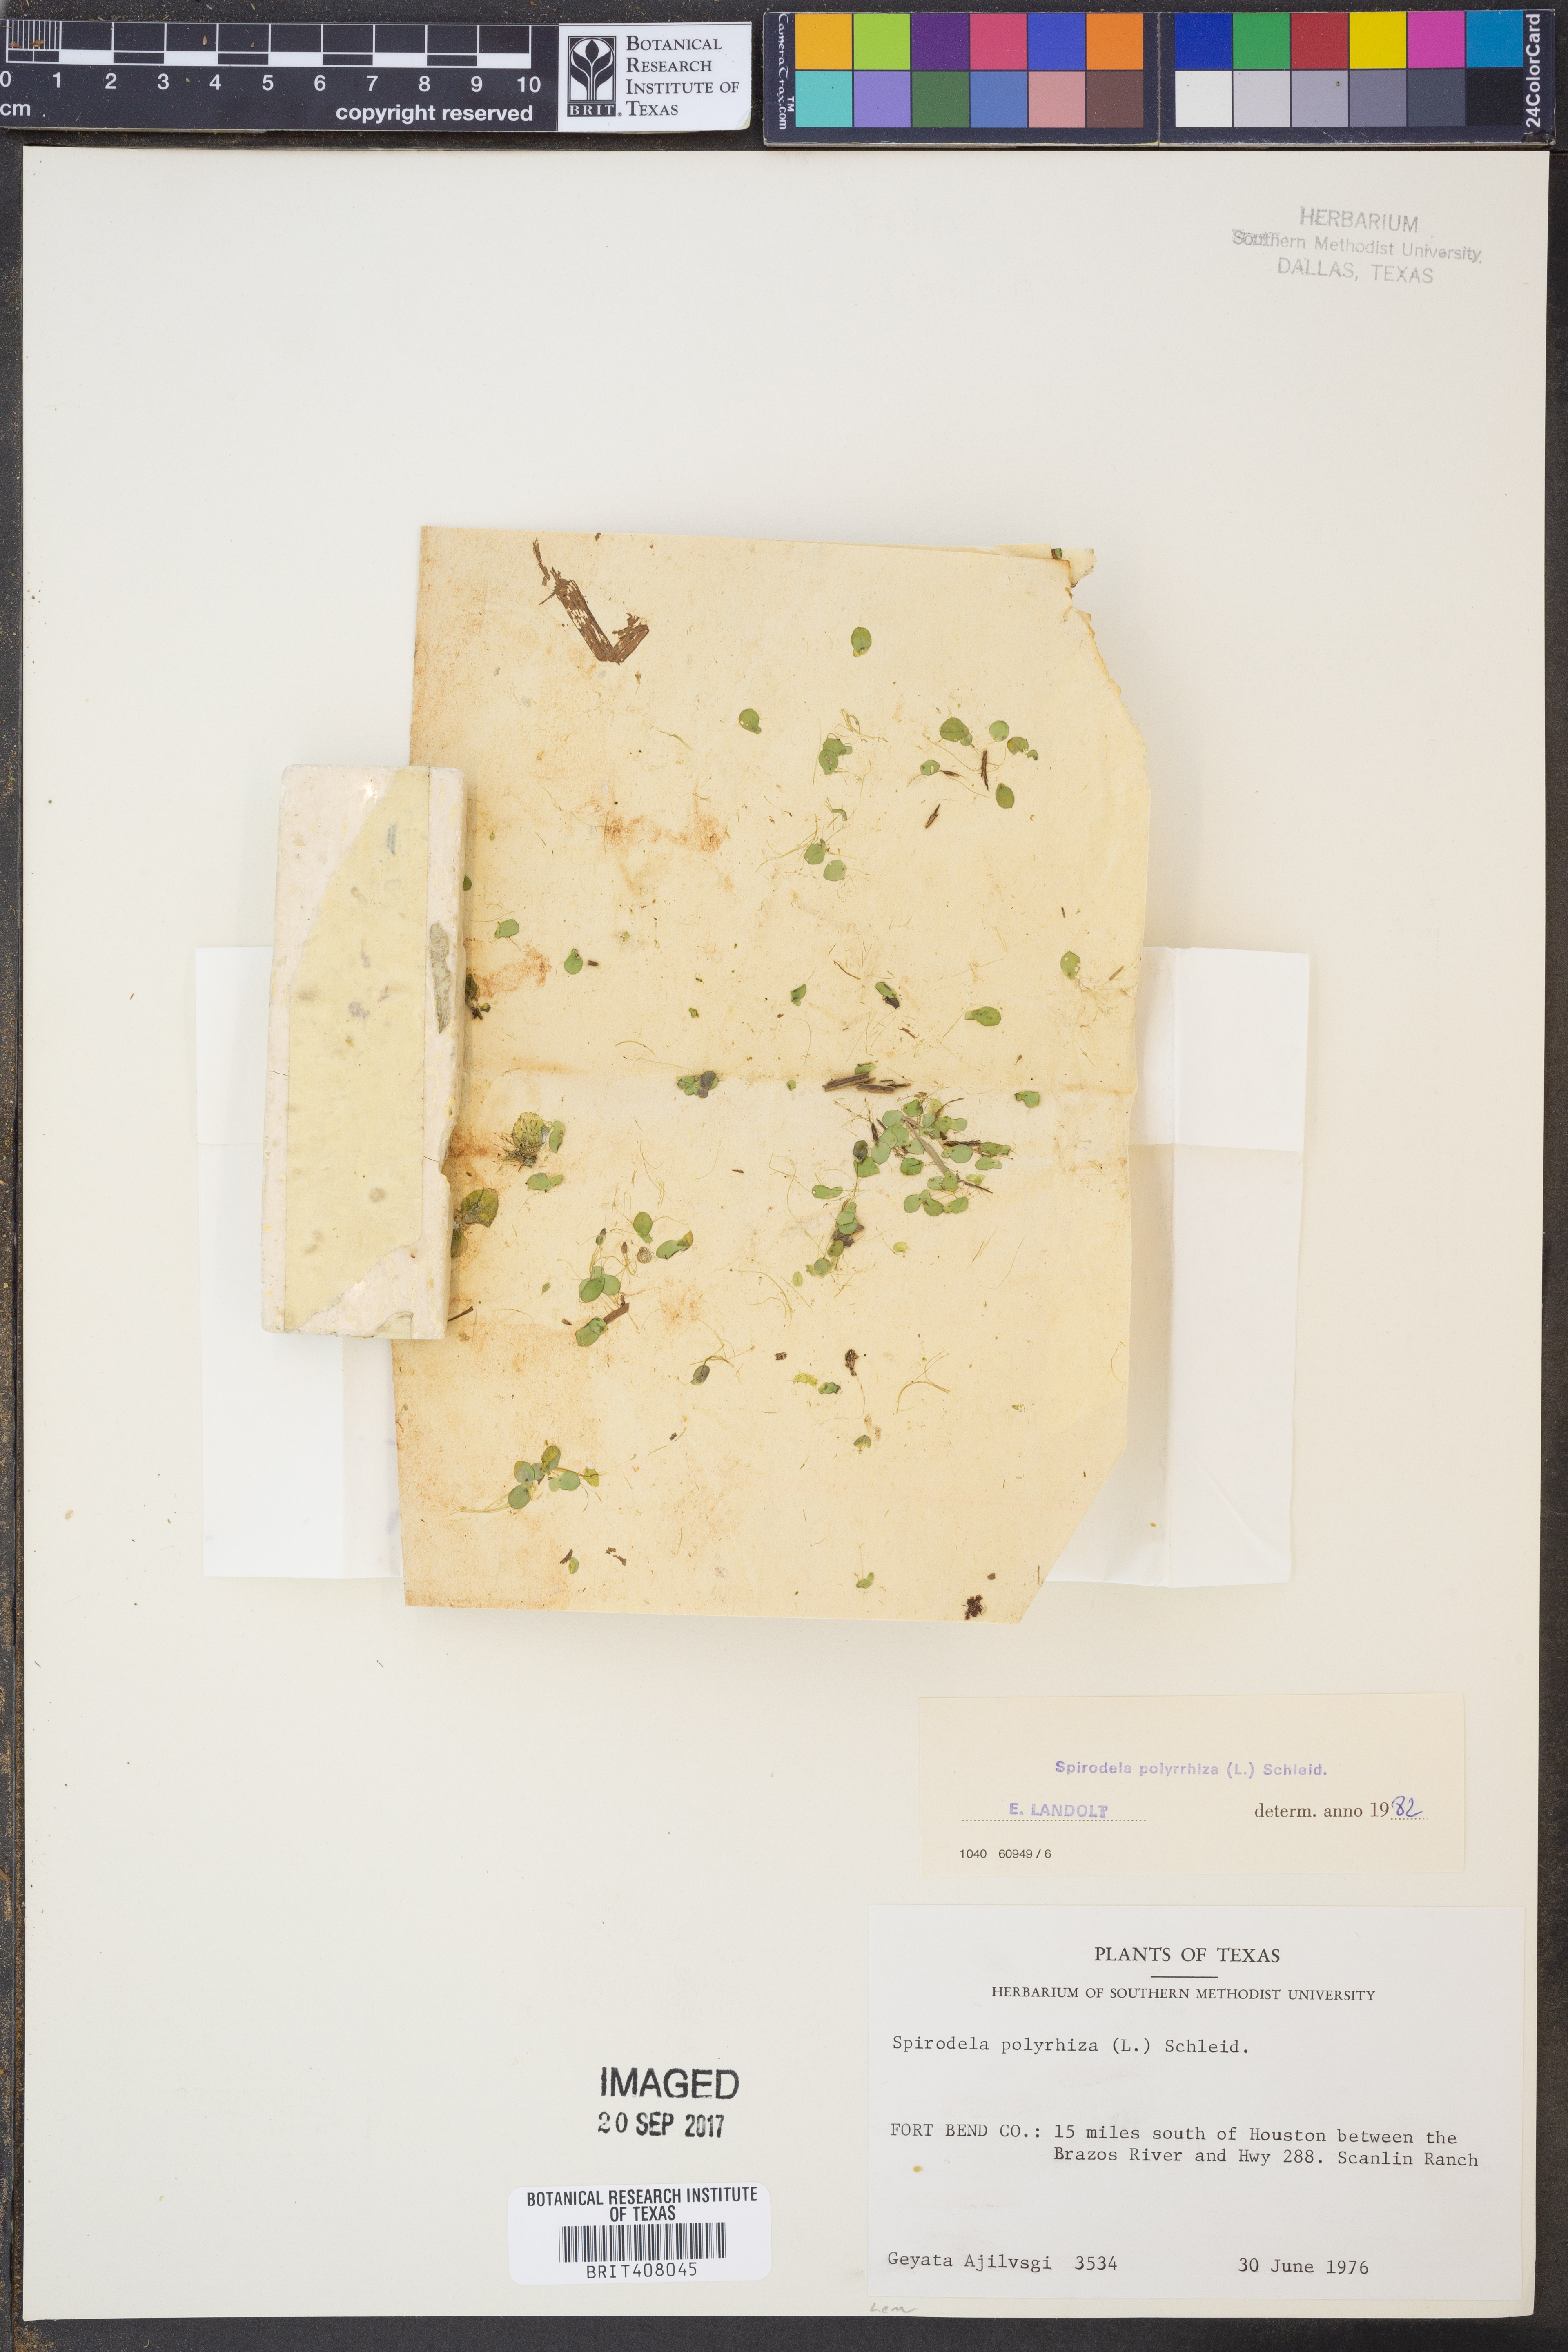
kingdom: Plantae
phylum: Tracheophyta
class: Liliopsida
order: Alismatales
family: Araceae
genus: Spirodela
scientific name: Spirodela polyrhiza
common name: Great duckweed
